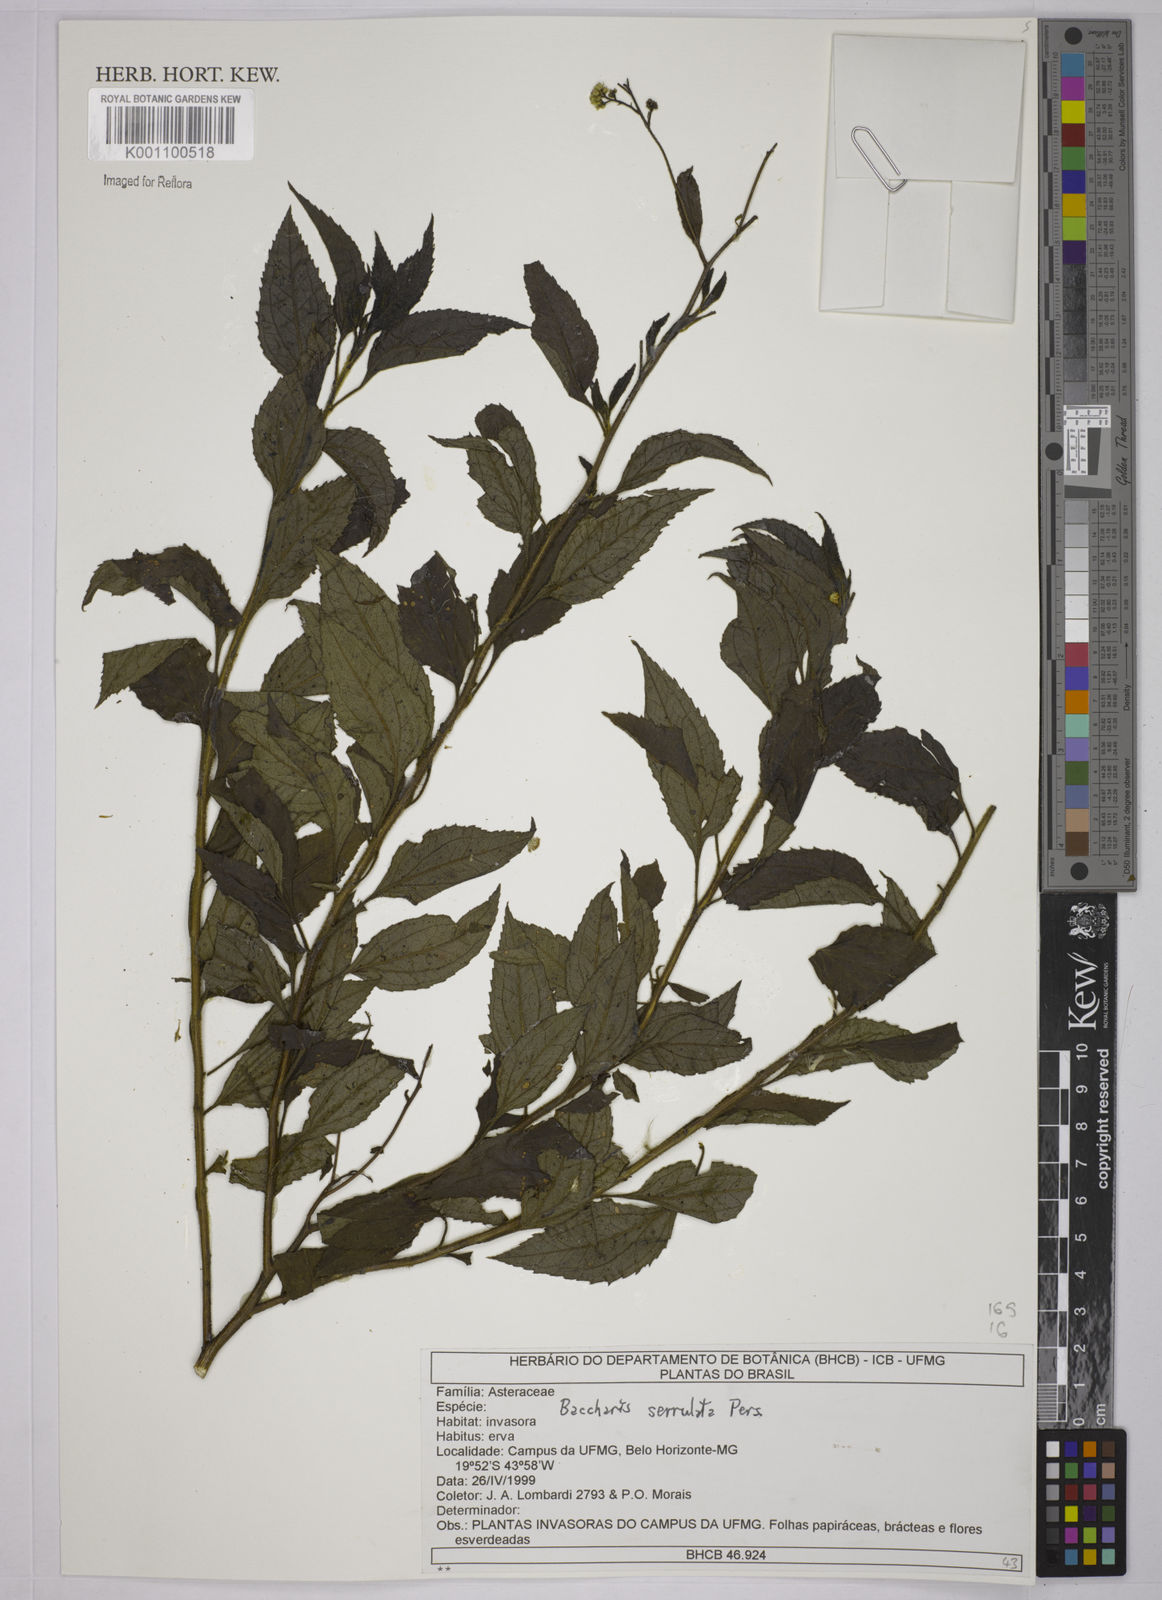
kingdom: Plantae
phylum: Tracheophyta
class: Magnoliopsida
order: Asterales
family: Asteraceae
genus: Baccharis
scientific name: Baccharis serrulata
